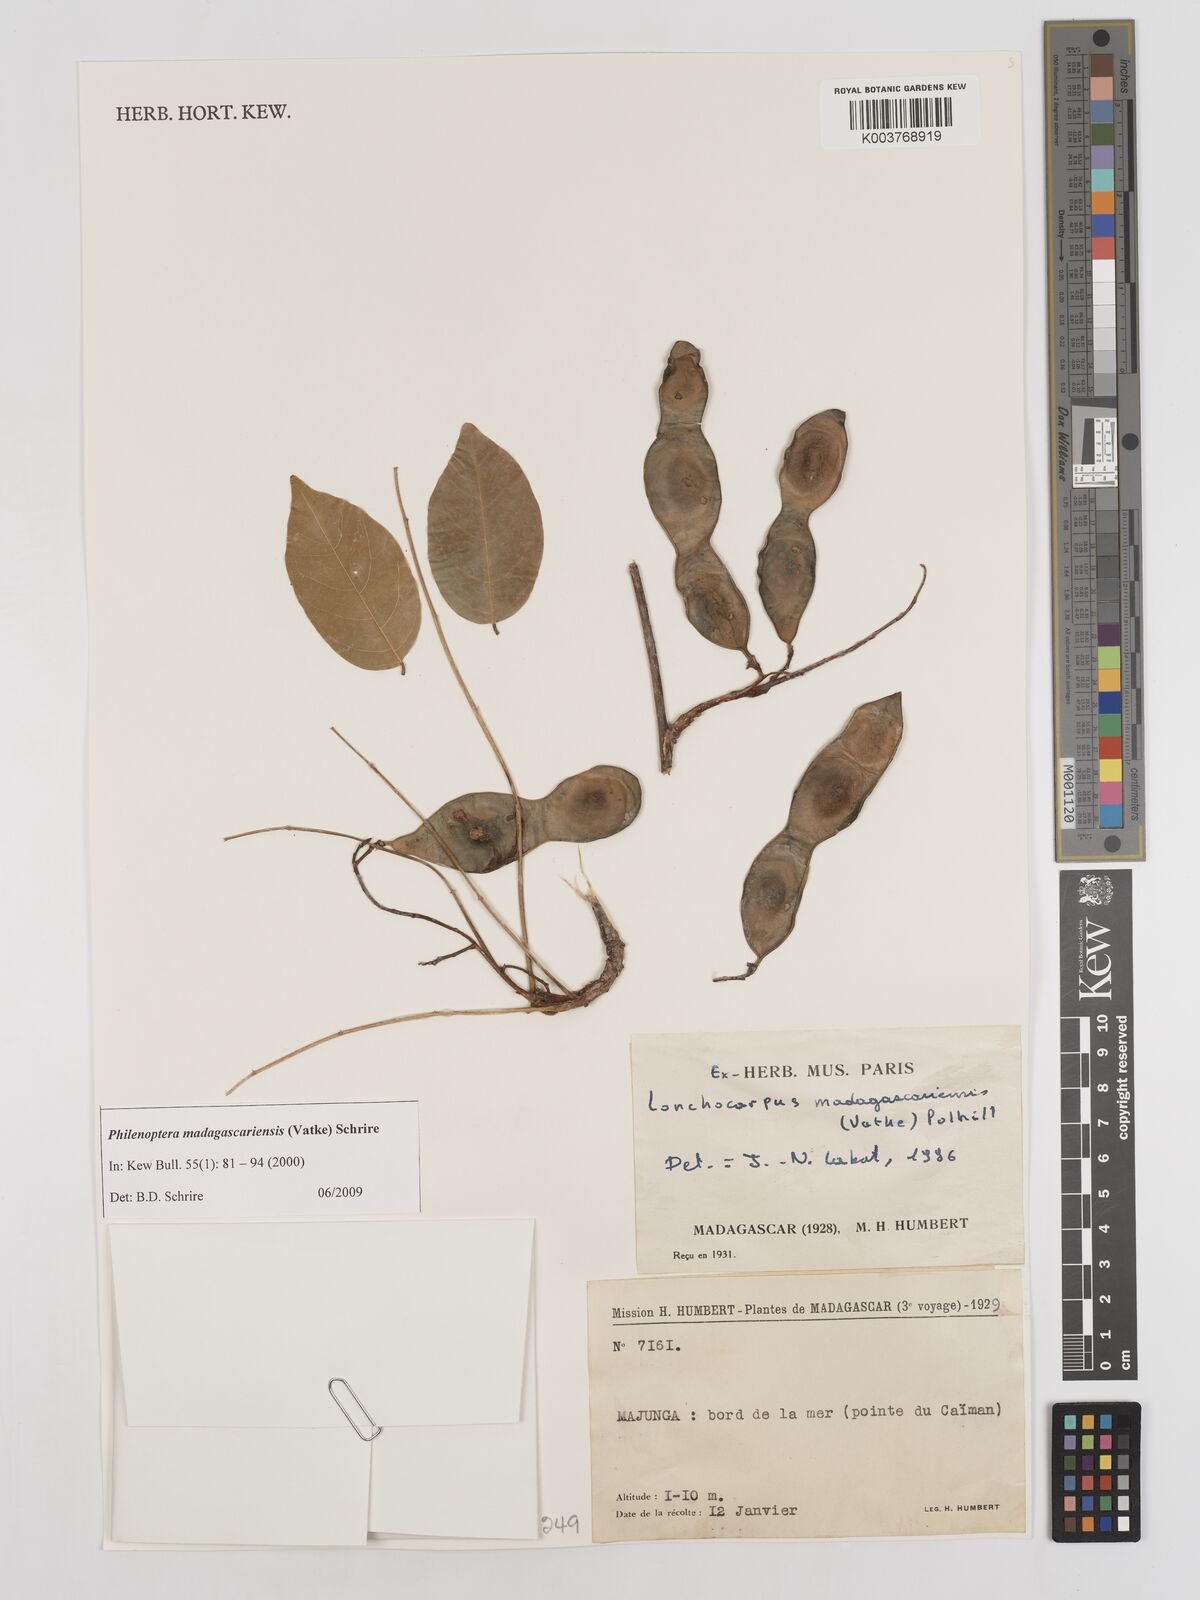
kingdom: Plantae
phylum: Tracheophyta
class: Magnoliopsida
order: Fabales
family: Fabaceae
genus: Lonchocarpus
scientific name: Lonchocarpus madagascariensis
